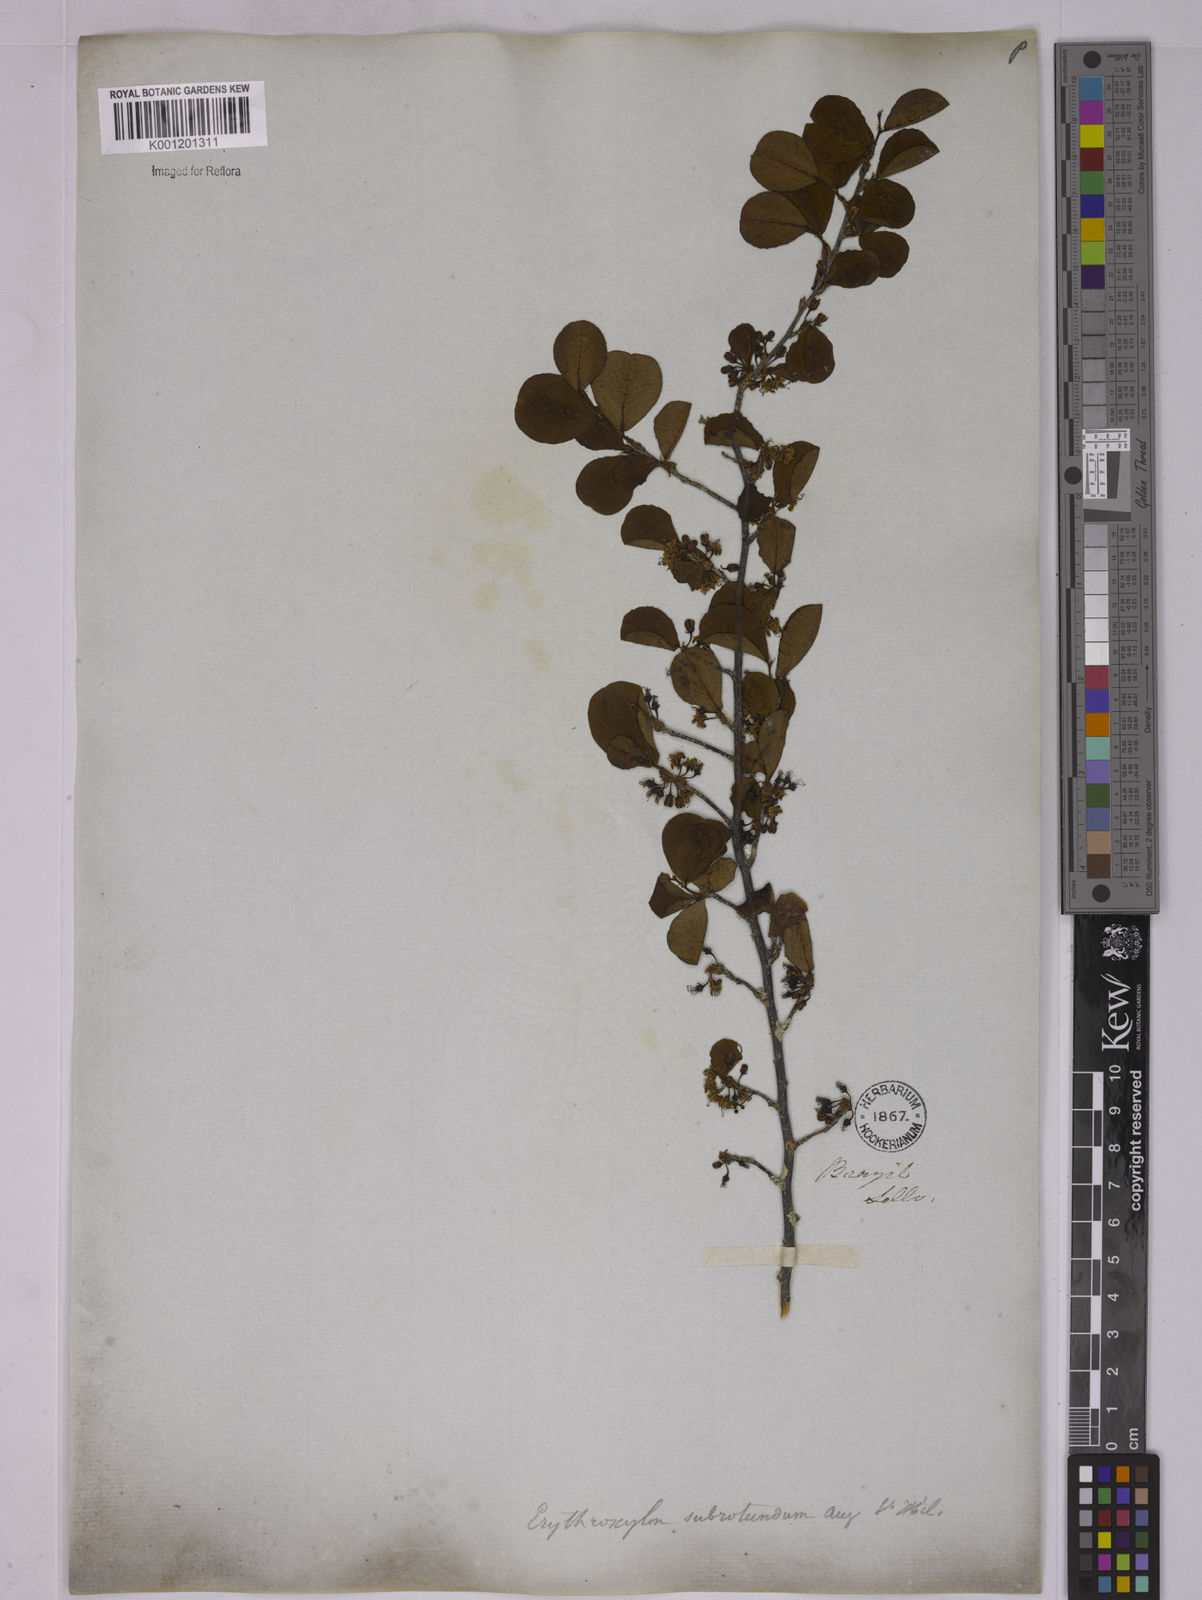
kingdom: Plantae
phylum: Tracheophyta
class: Magnoliopsida
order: Malpighiales
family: Erythroxylaceae
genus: Erythroxylum
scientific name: Erythroxylum subrotundum
